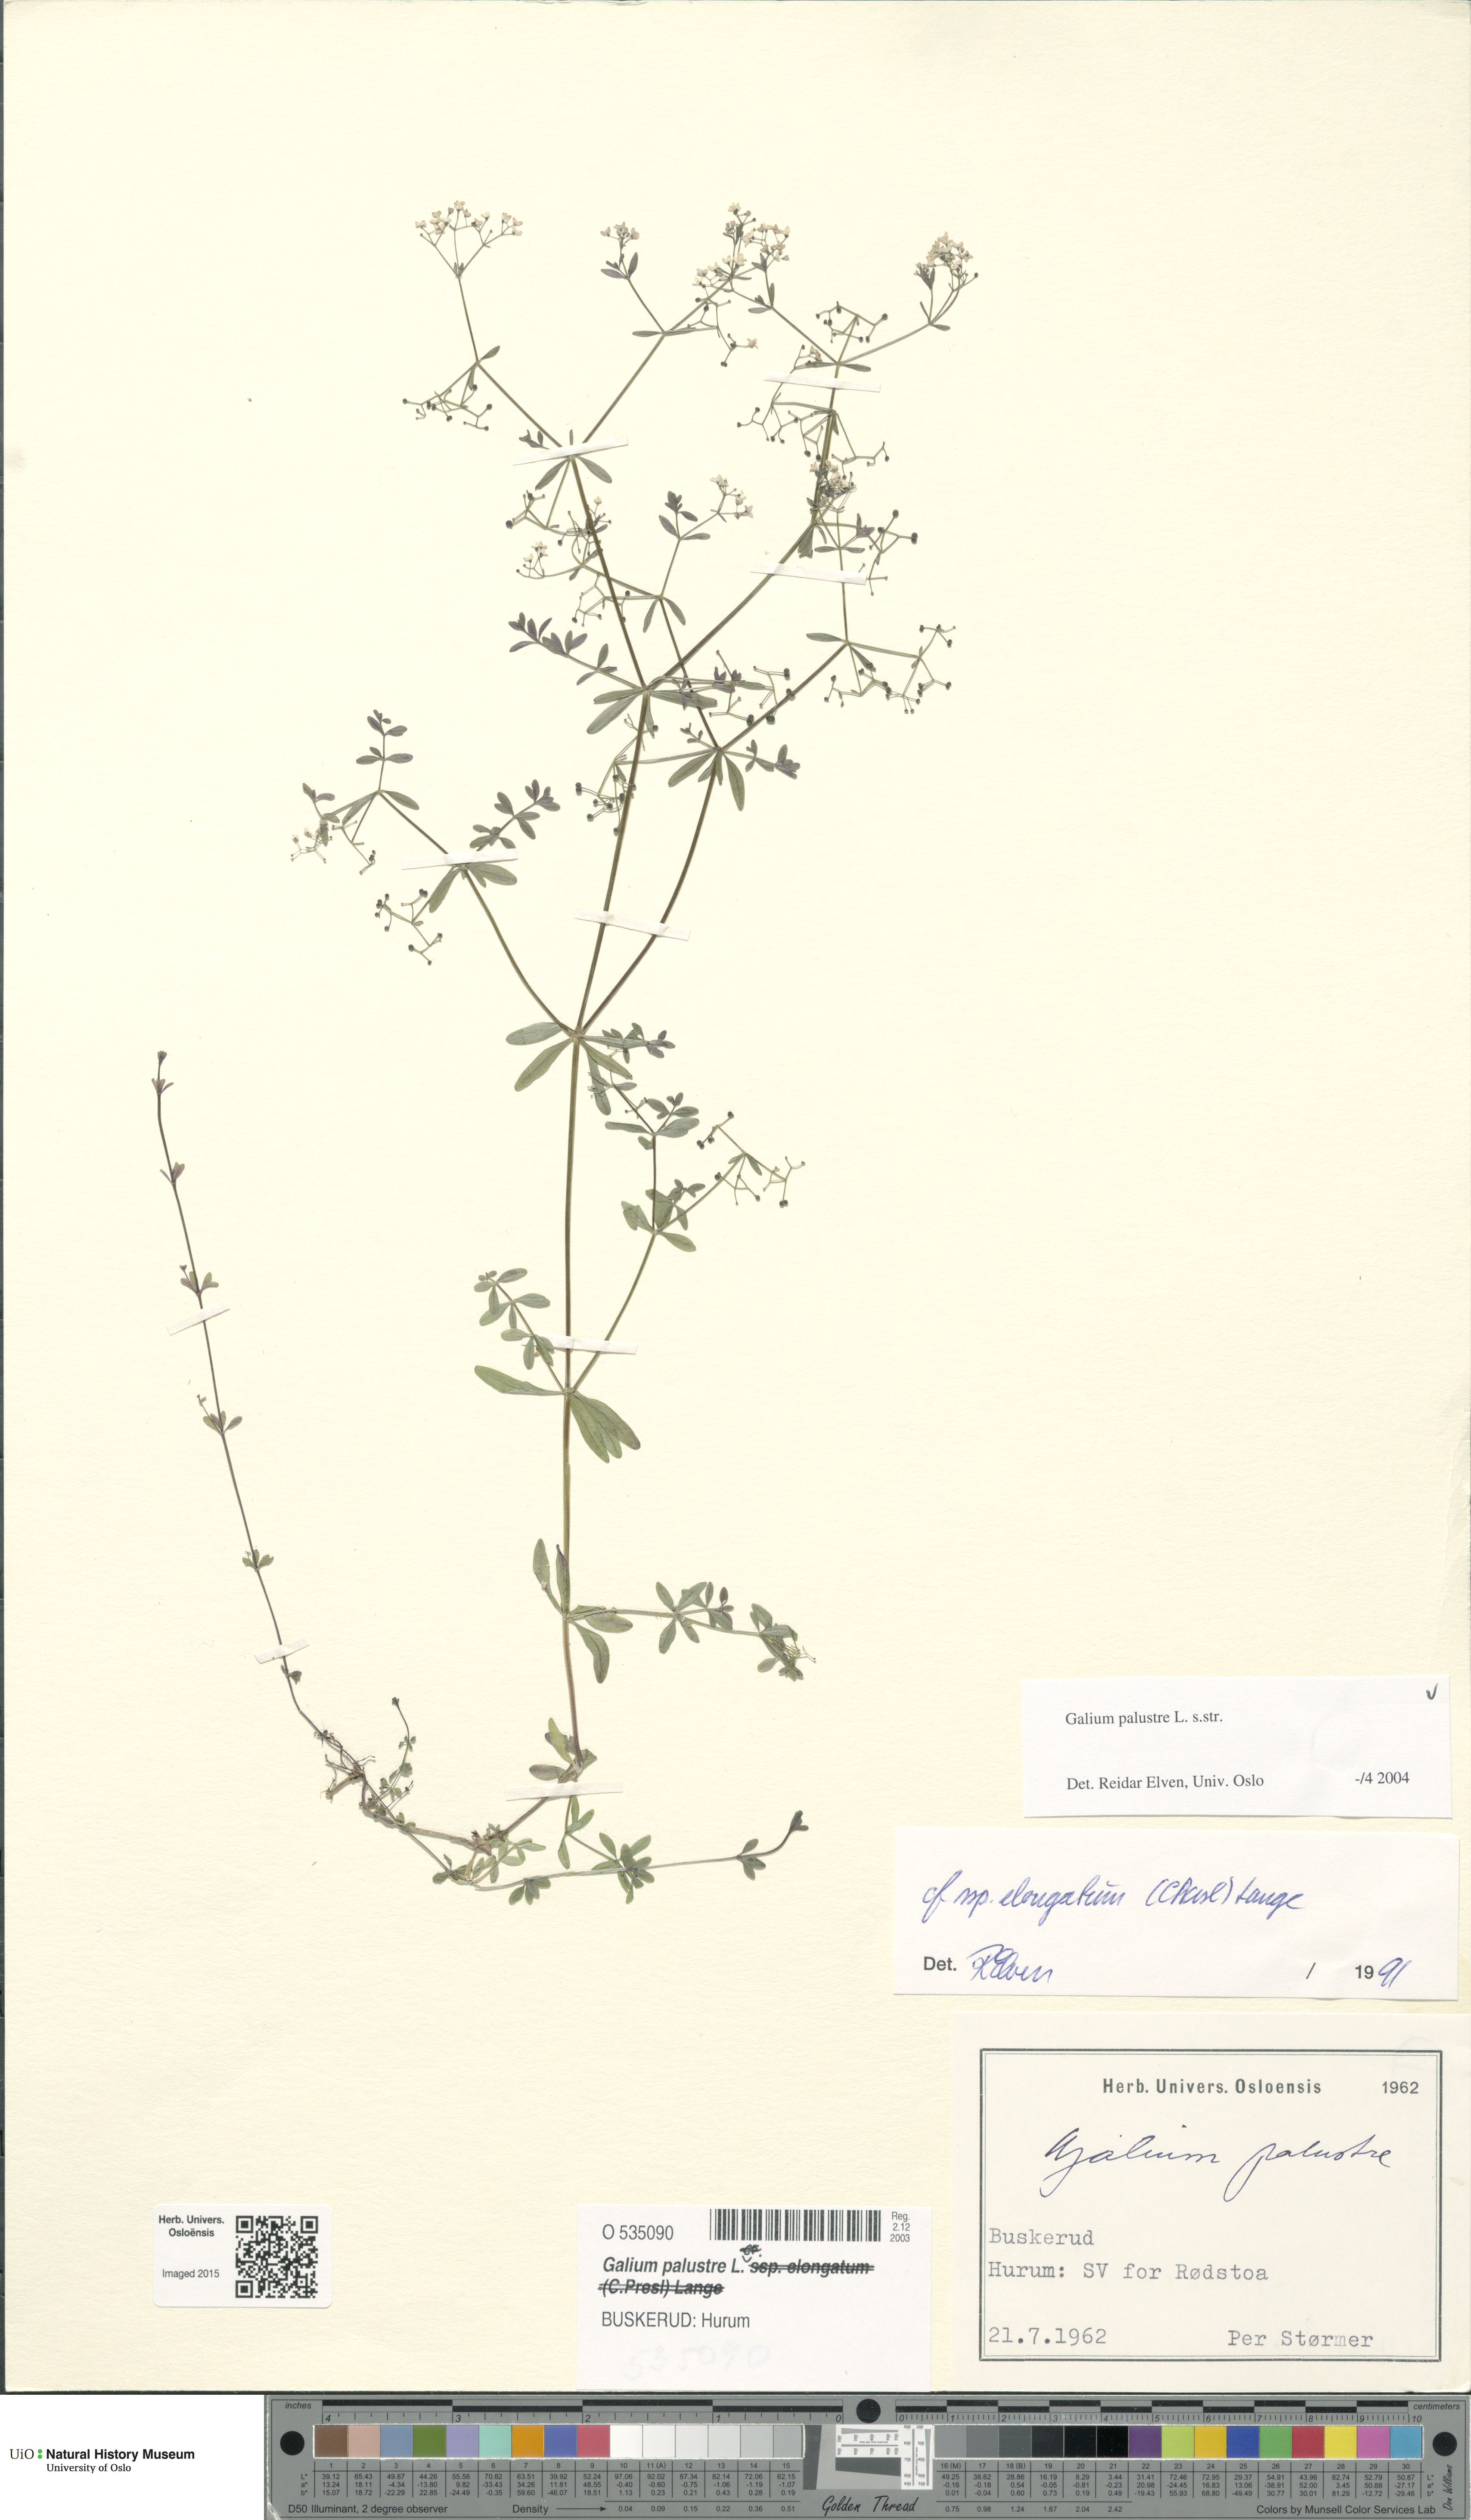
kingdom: Plantae
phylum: Tracheophyta
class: Magnoliopsida
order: Gentianales
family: Rubiaceae
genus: Galium
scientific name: Galium palustre
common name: Common marsh-bedstraw
